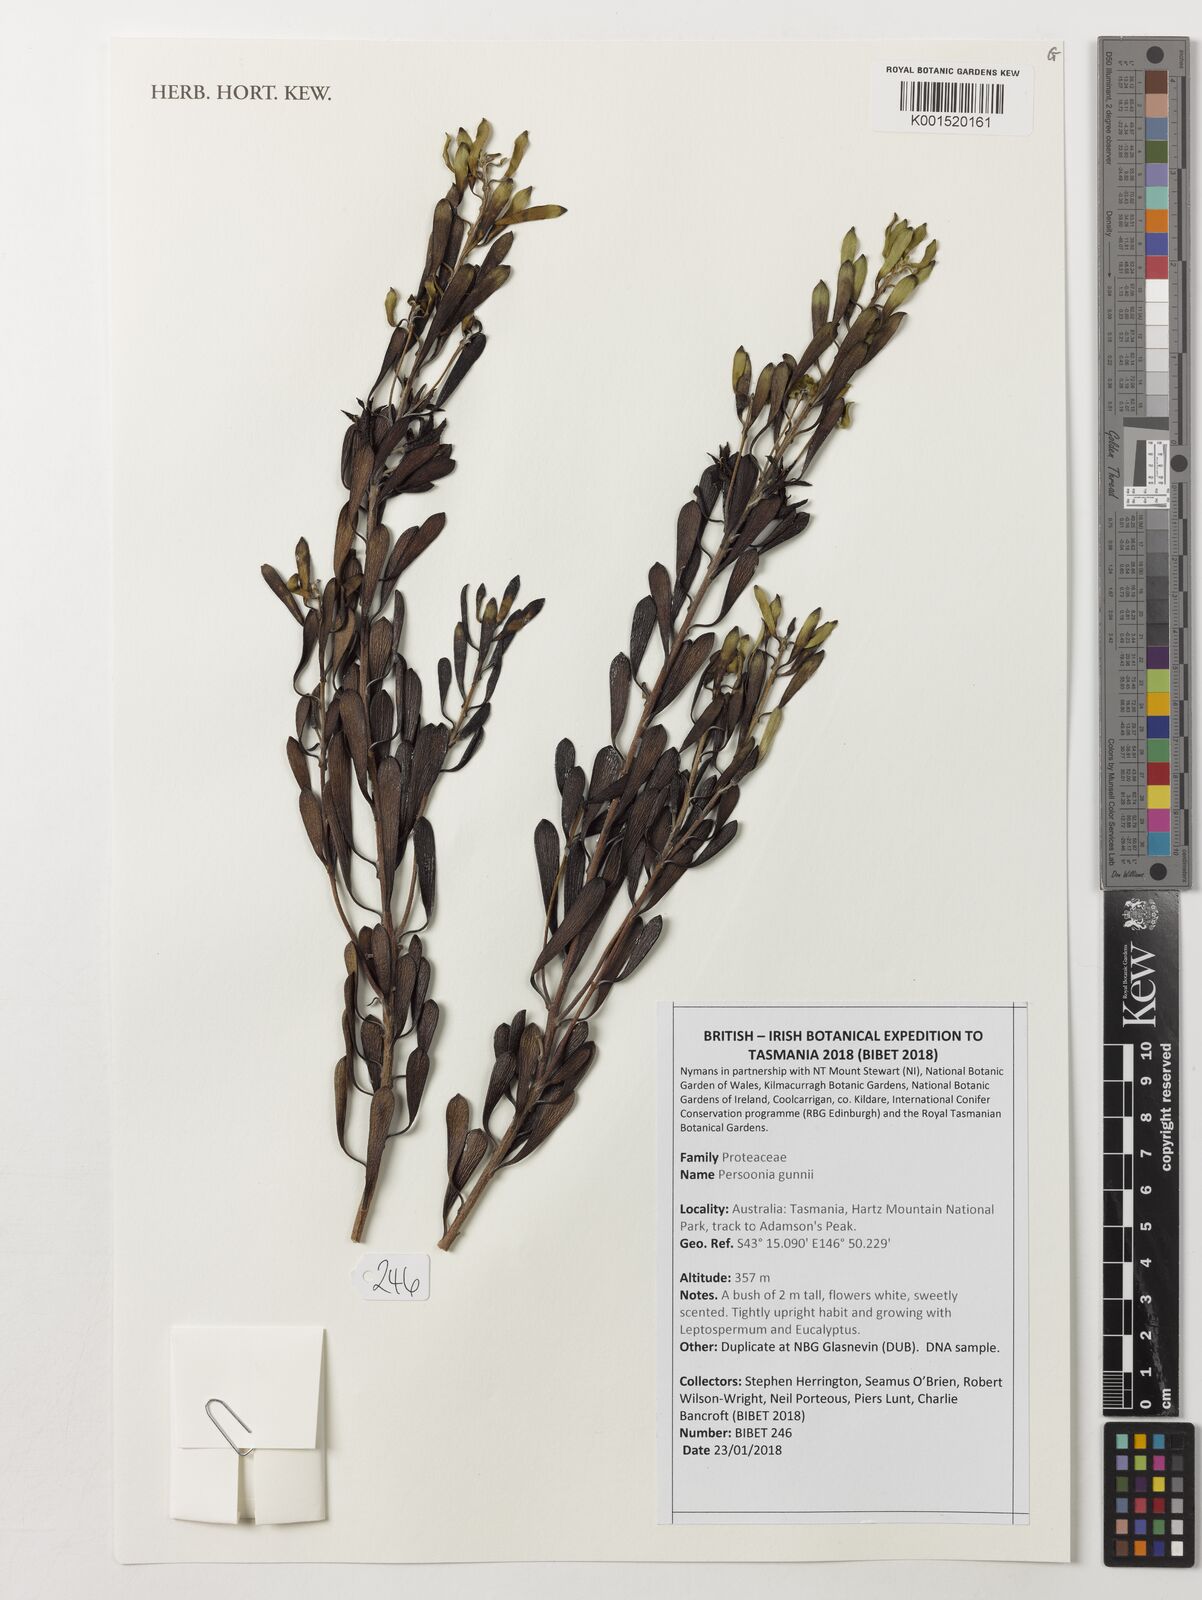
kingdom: Plantae
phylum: Tracheophyta
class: Magnoliopsida
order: Proteales
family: Proteaceae
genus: Persoonia
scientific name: Persoonia gunnii
